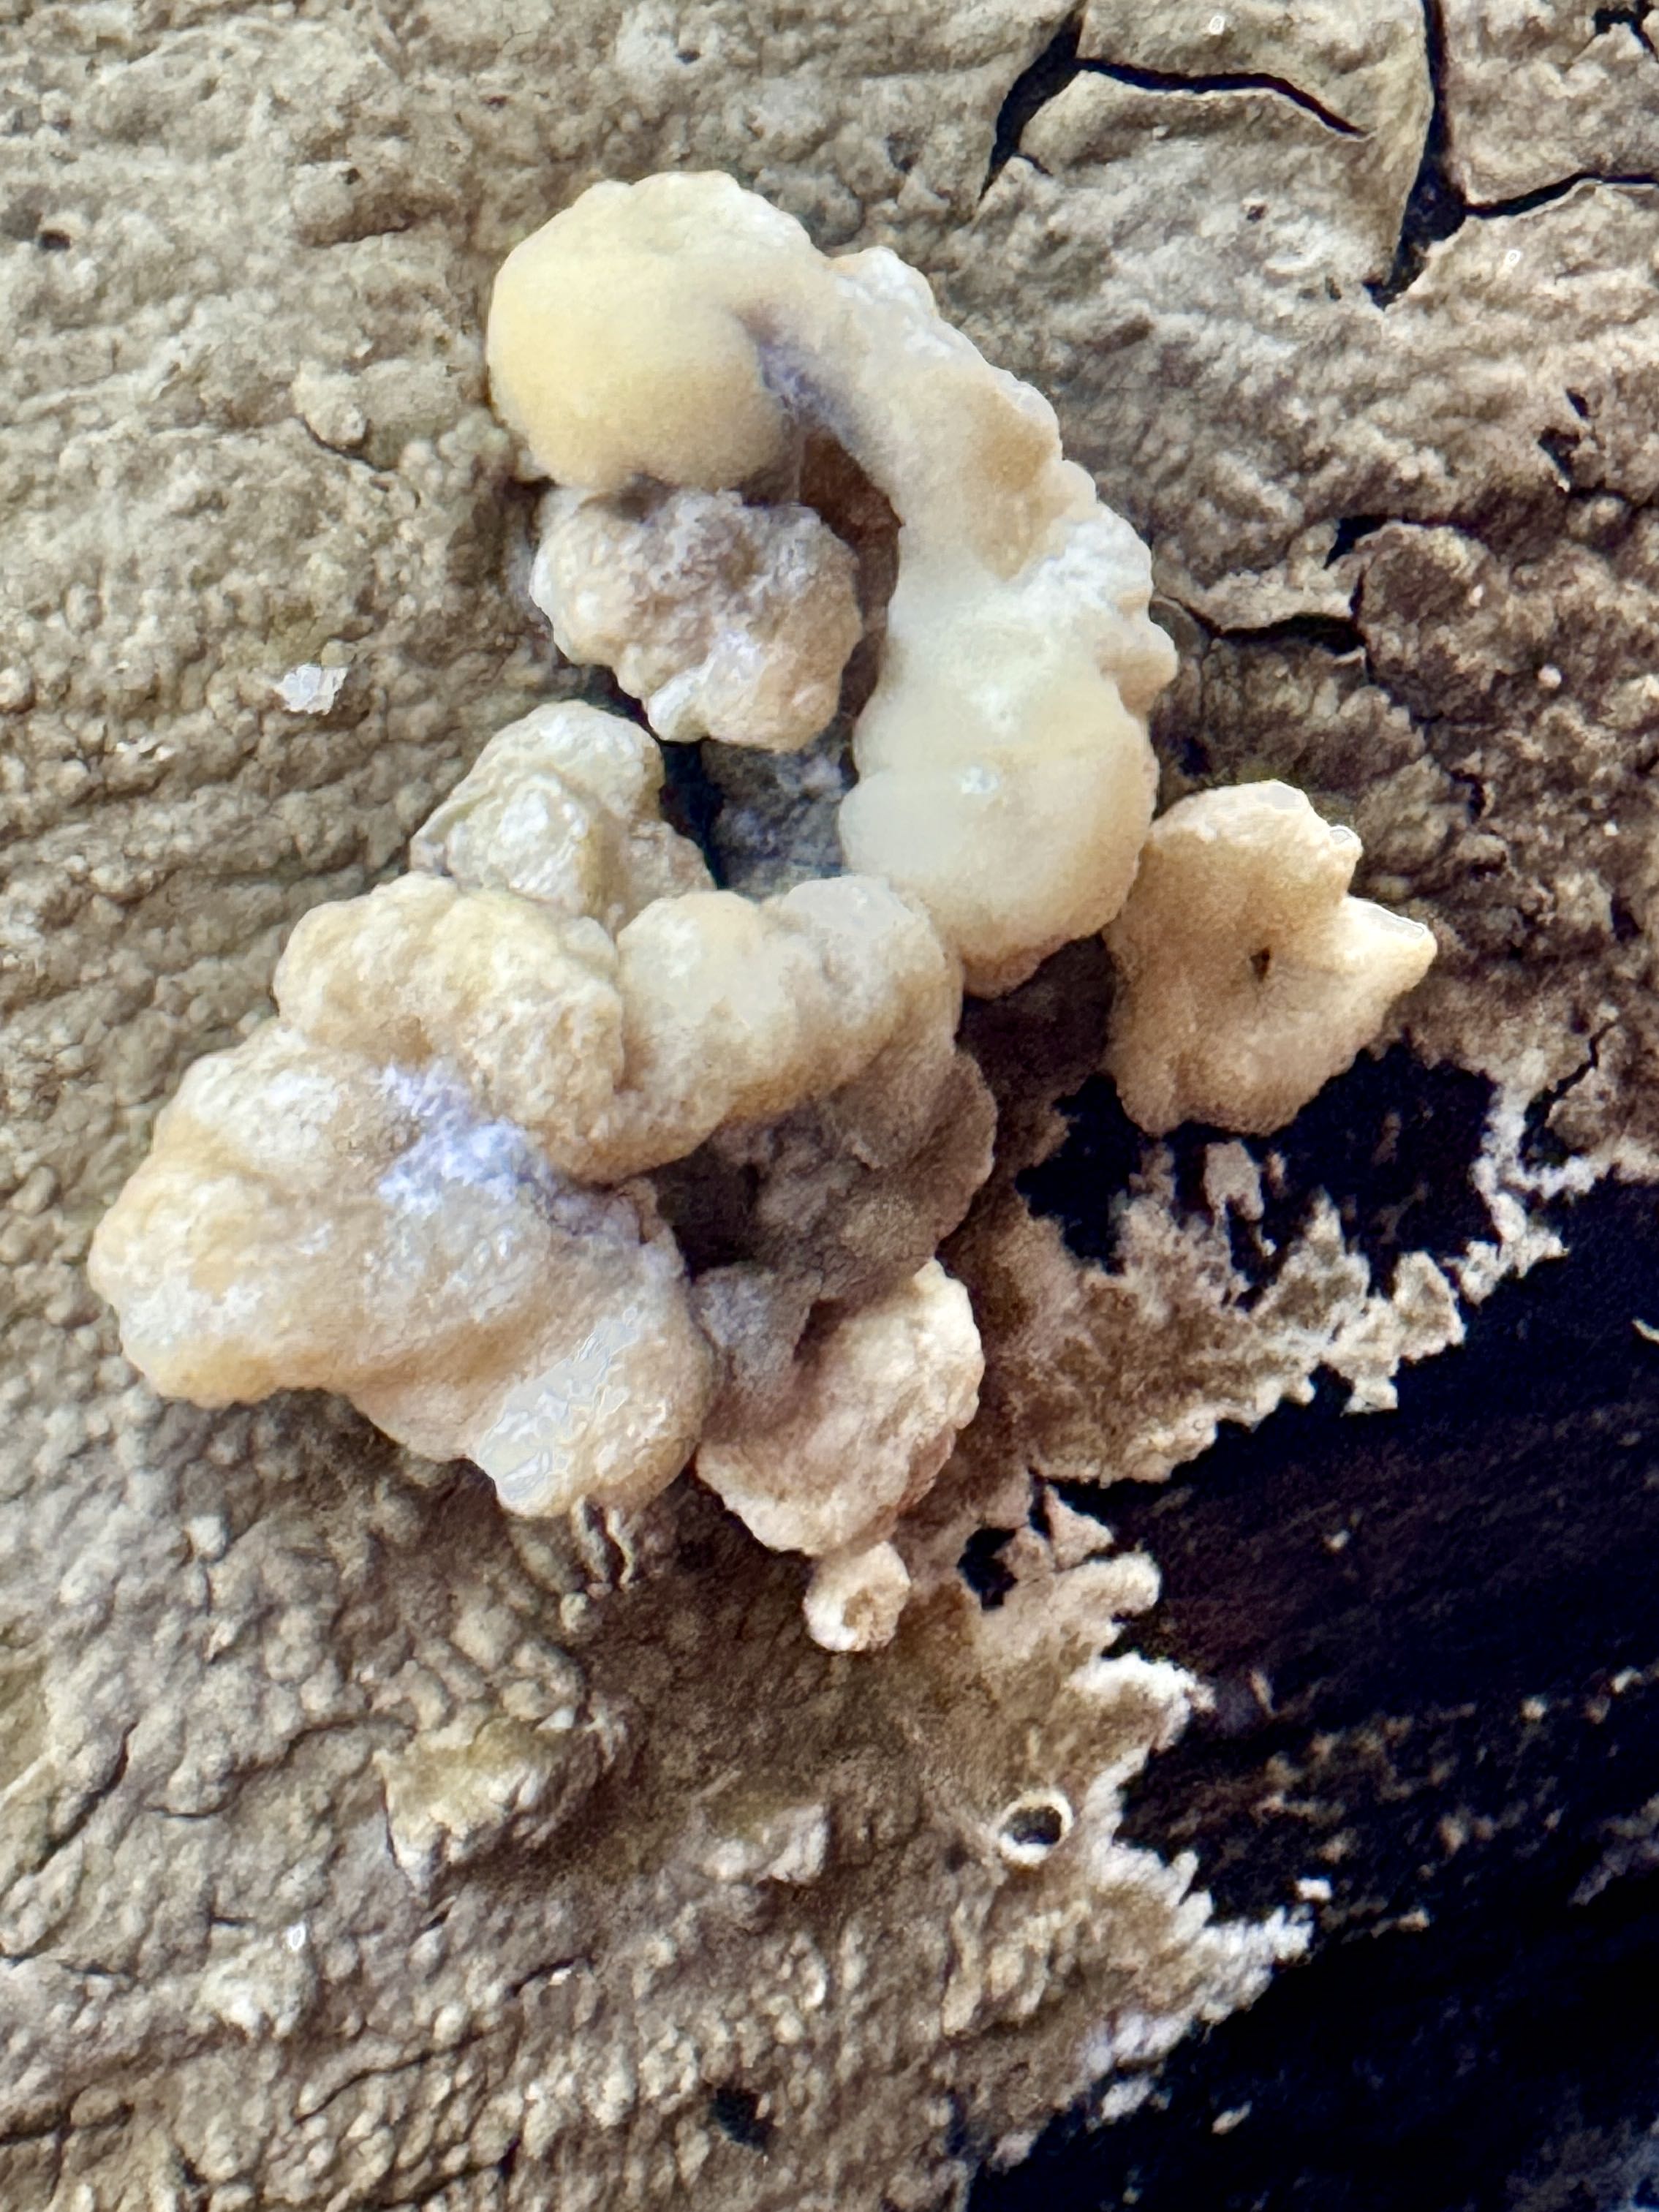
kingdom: Fungi
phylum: Ascomycota
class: Sordariomycetes
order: Xylariales
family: Hypoxylaceae
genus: Nodulisporium
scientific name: Nodulisporium cecidiogenes
